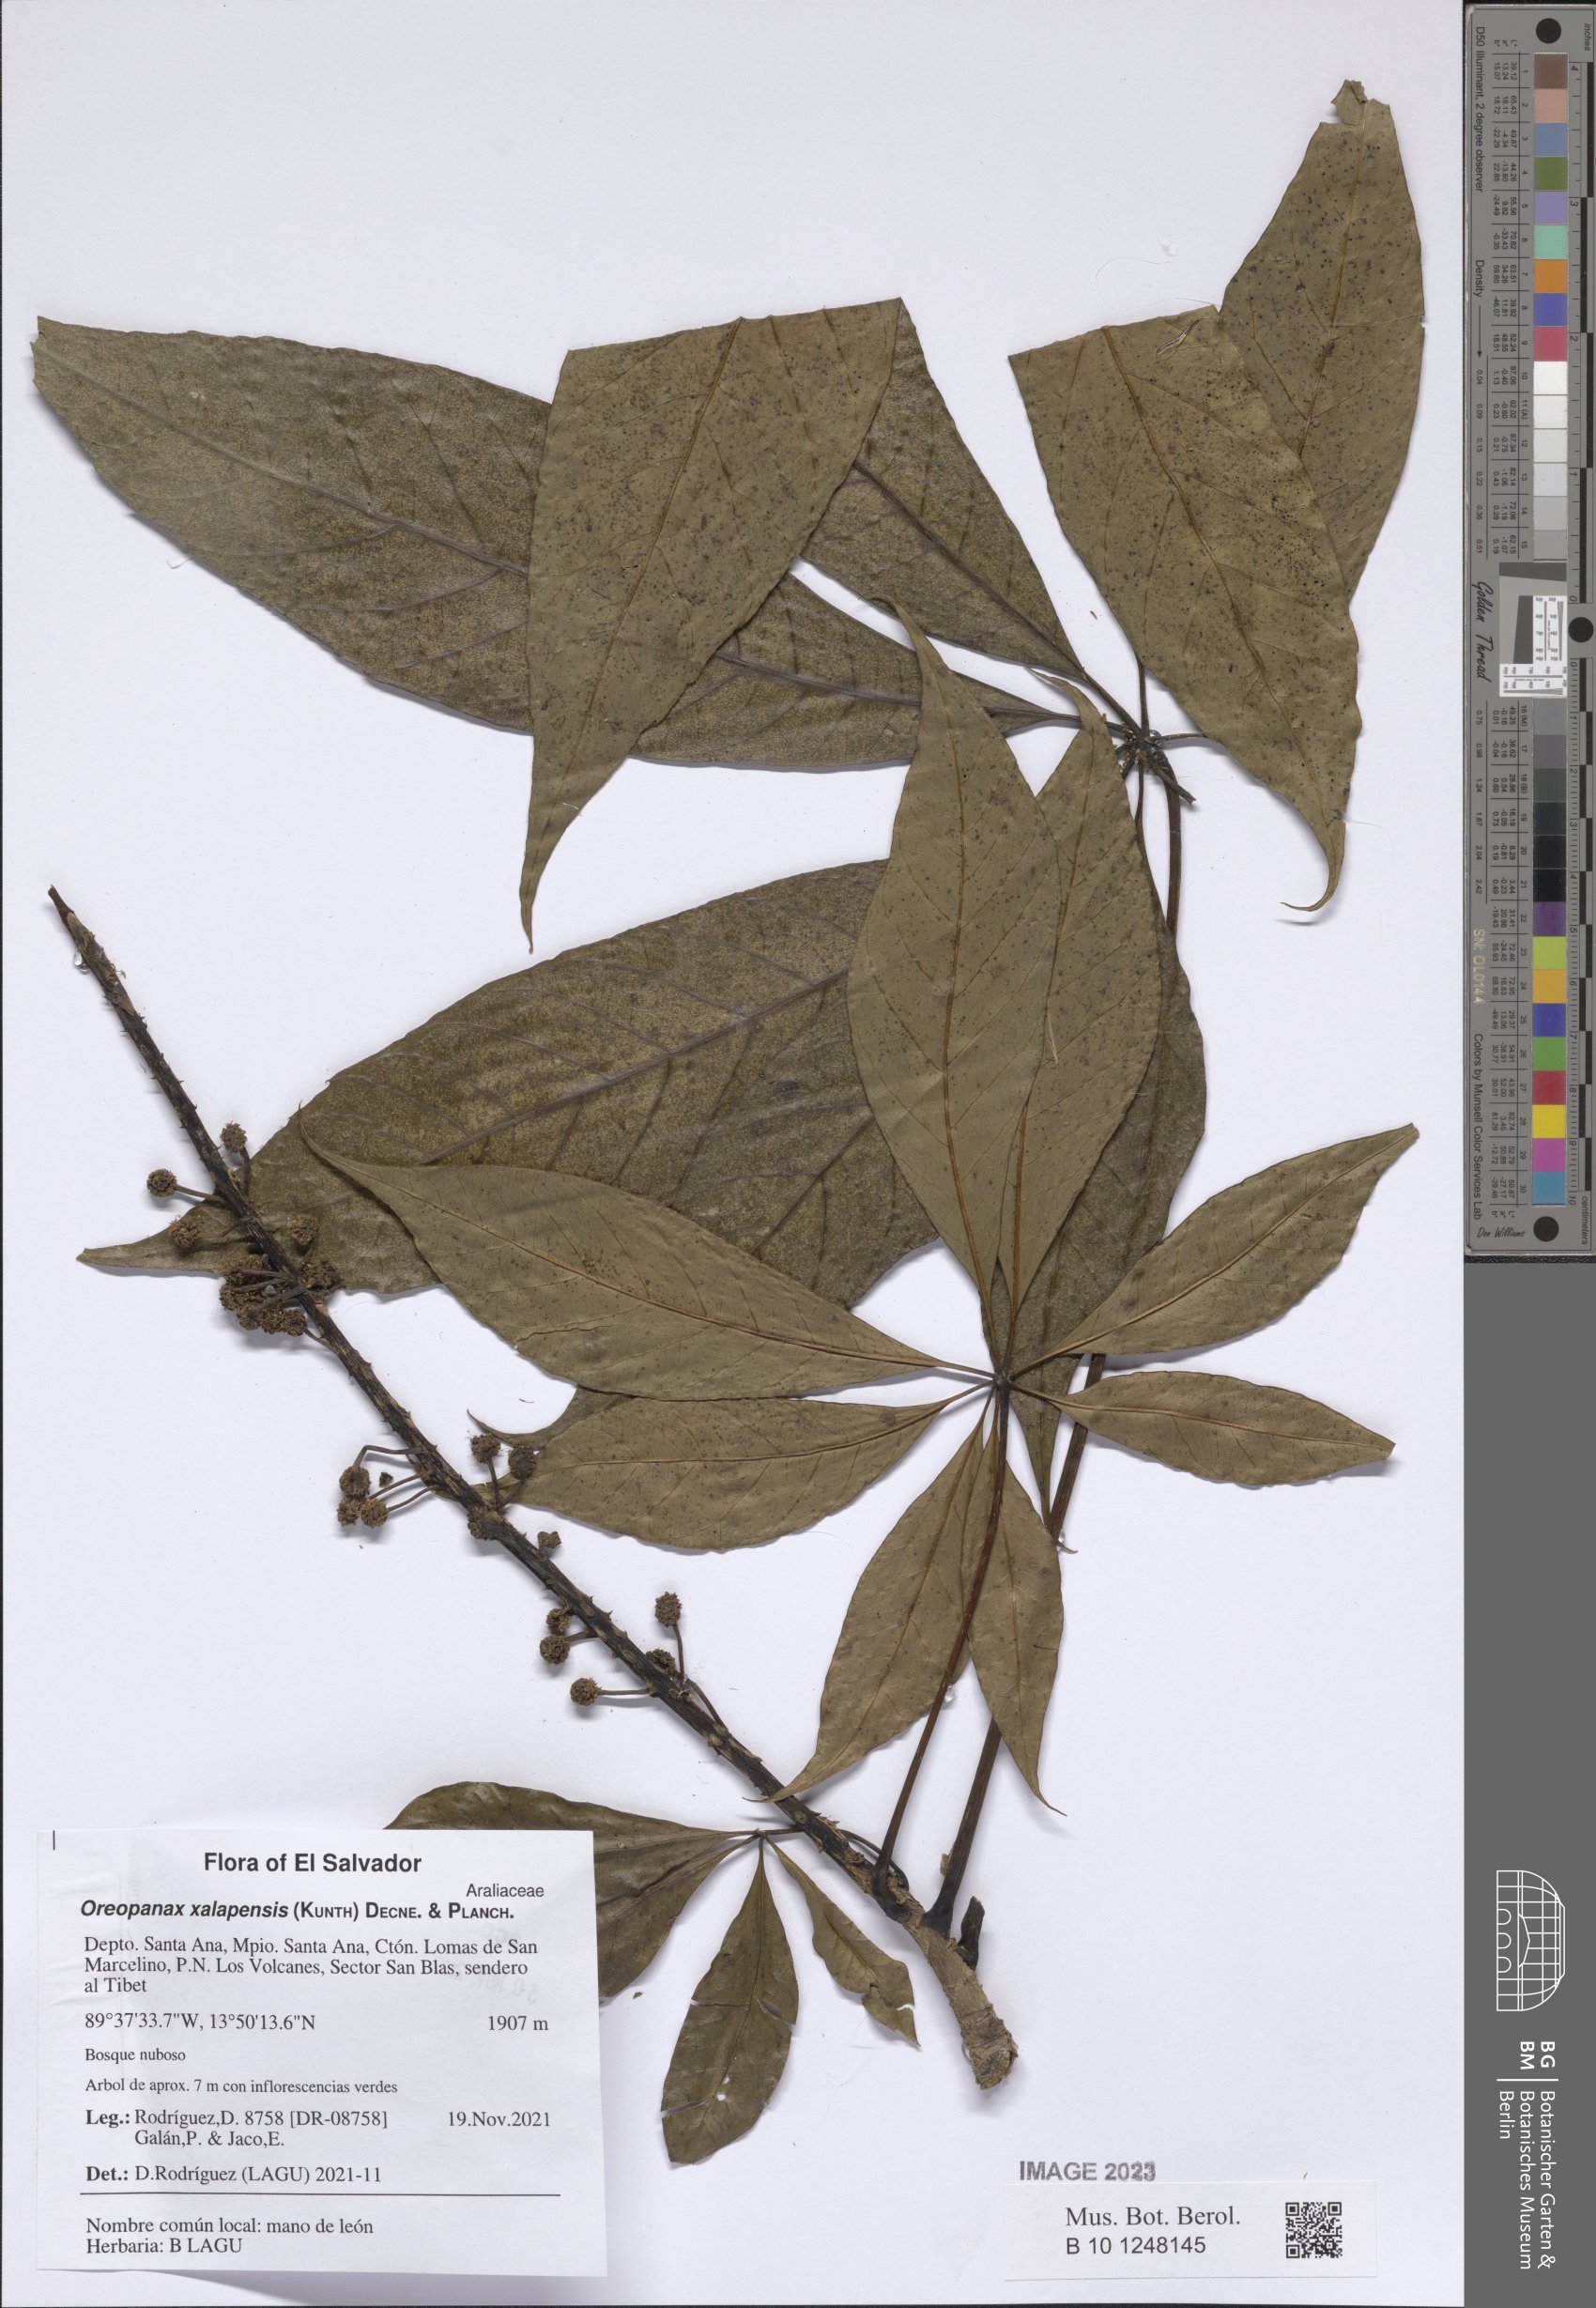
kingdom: Plantae
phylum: Tracheophyta
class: Magnoliopsida
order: Apiales
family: Araliaceae
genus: Oreopanax
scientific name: Oreopanax xalapensis
